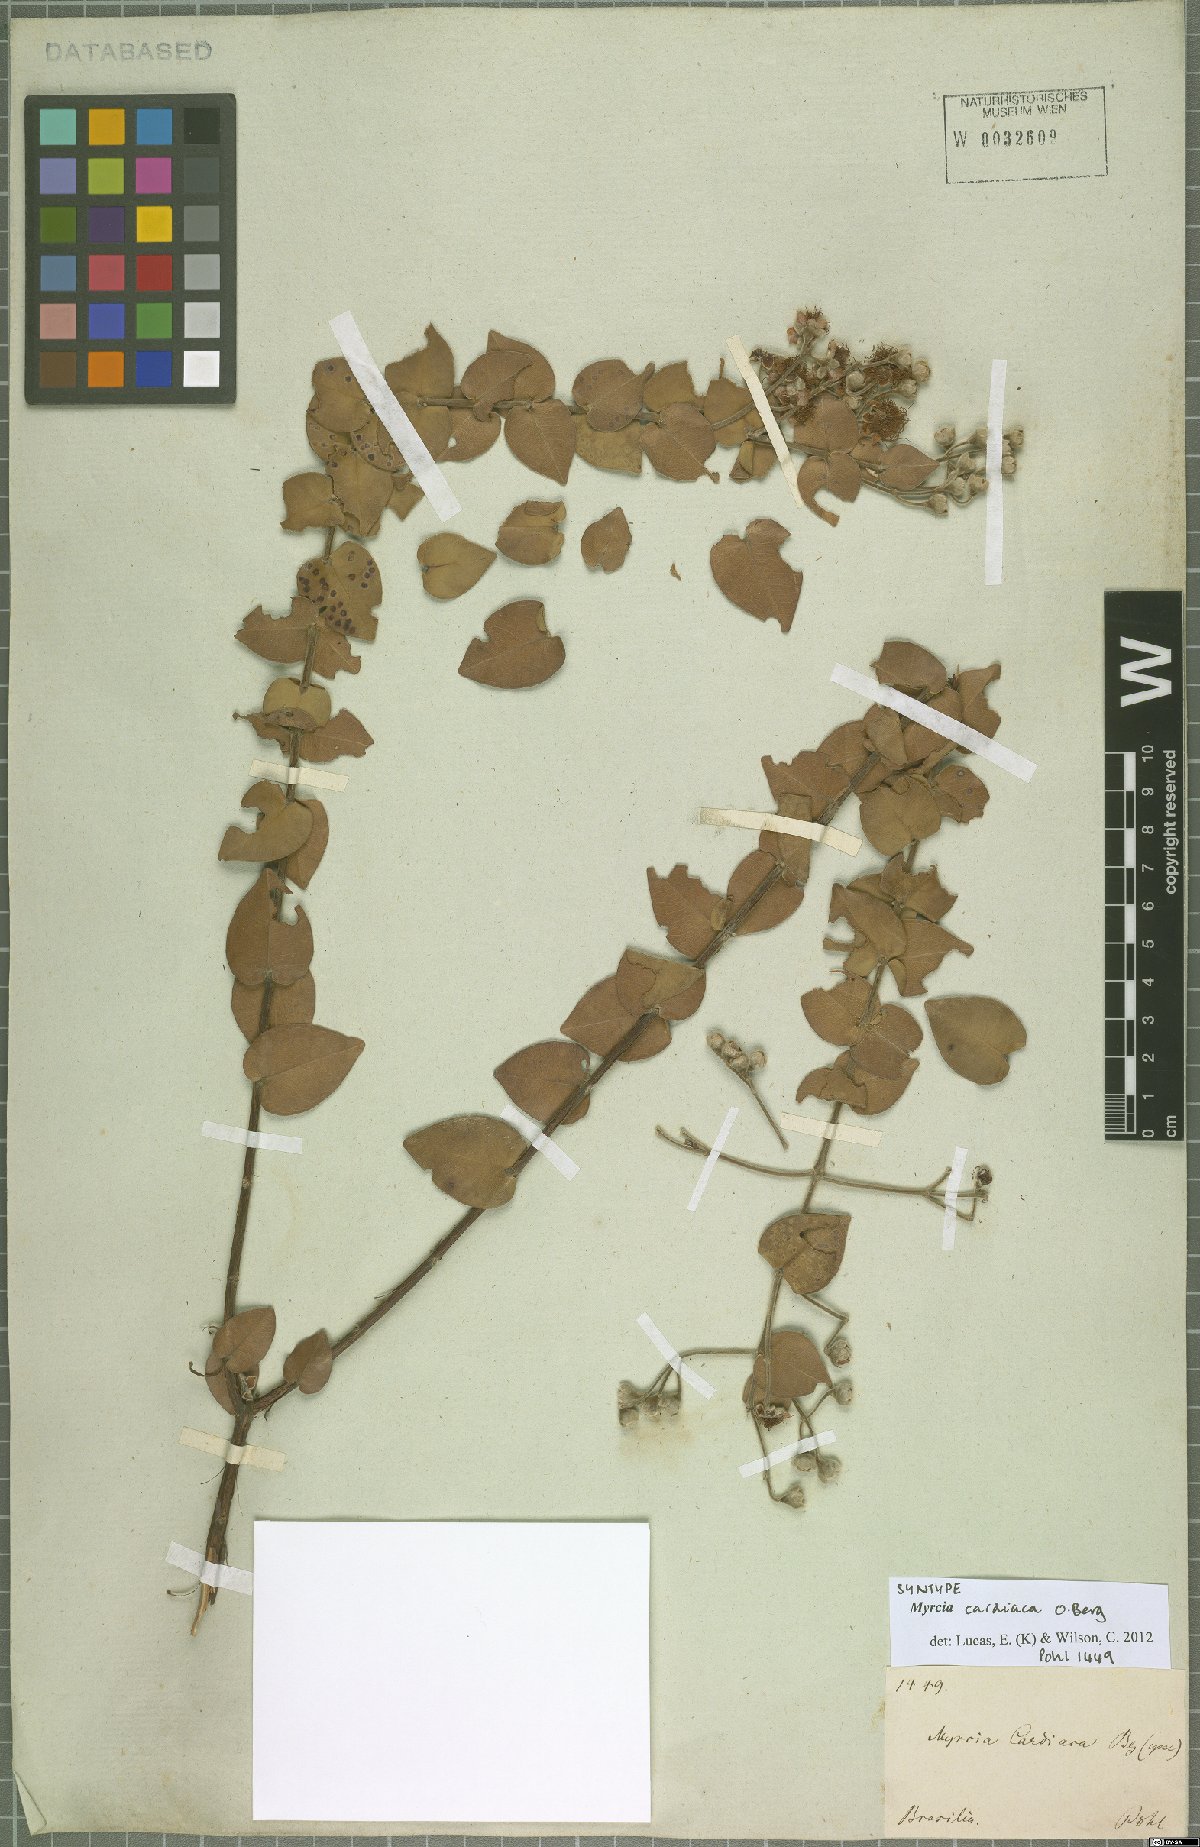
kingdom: Plantae
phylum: Tracheophyta
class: Magnoliopsida
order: Myrtales
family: Myrtaceae
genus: Myrcia
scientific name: Myrcia cardiaca
